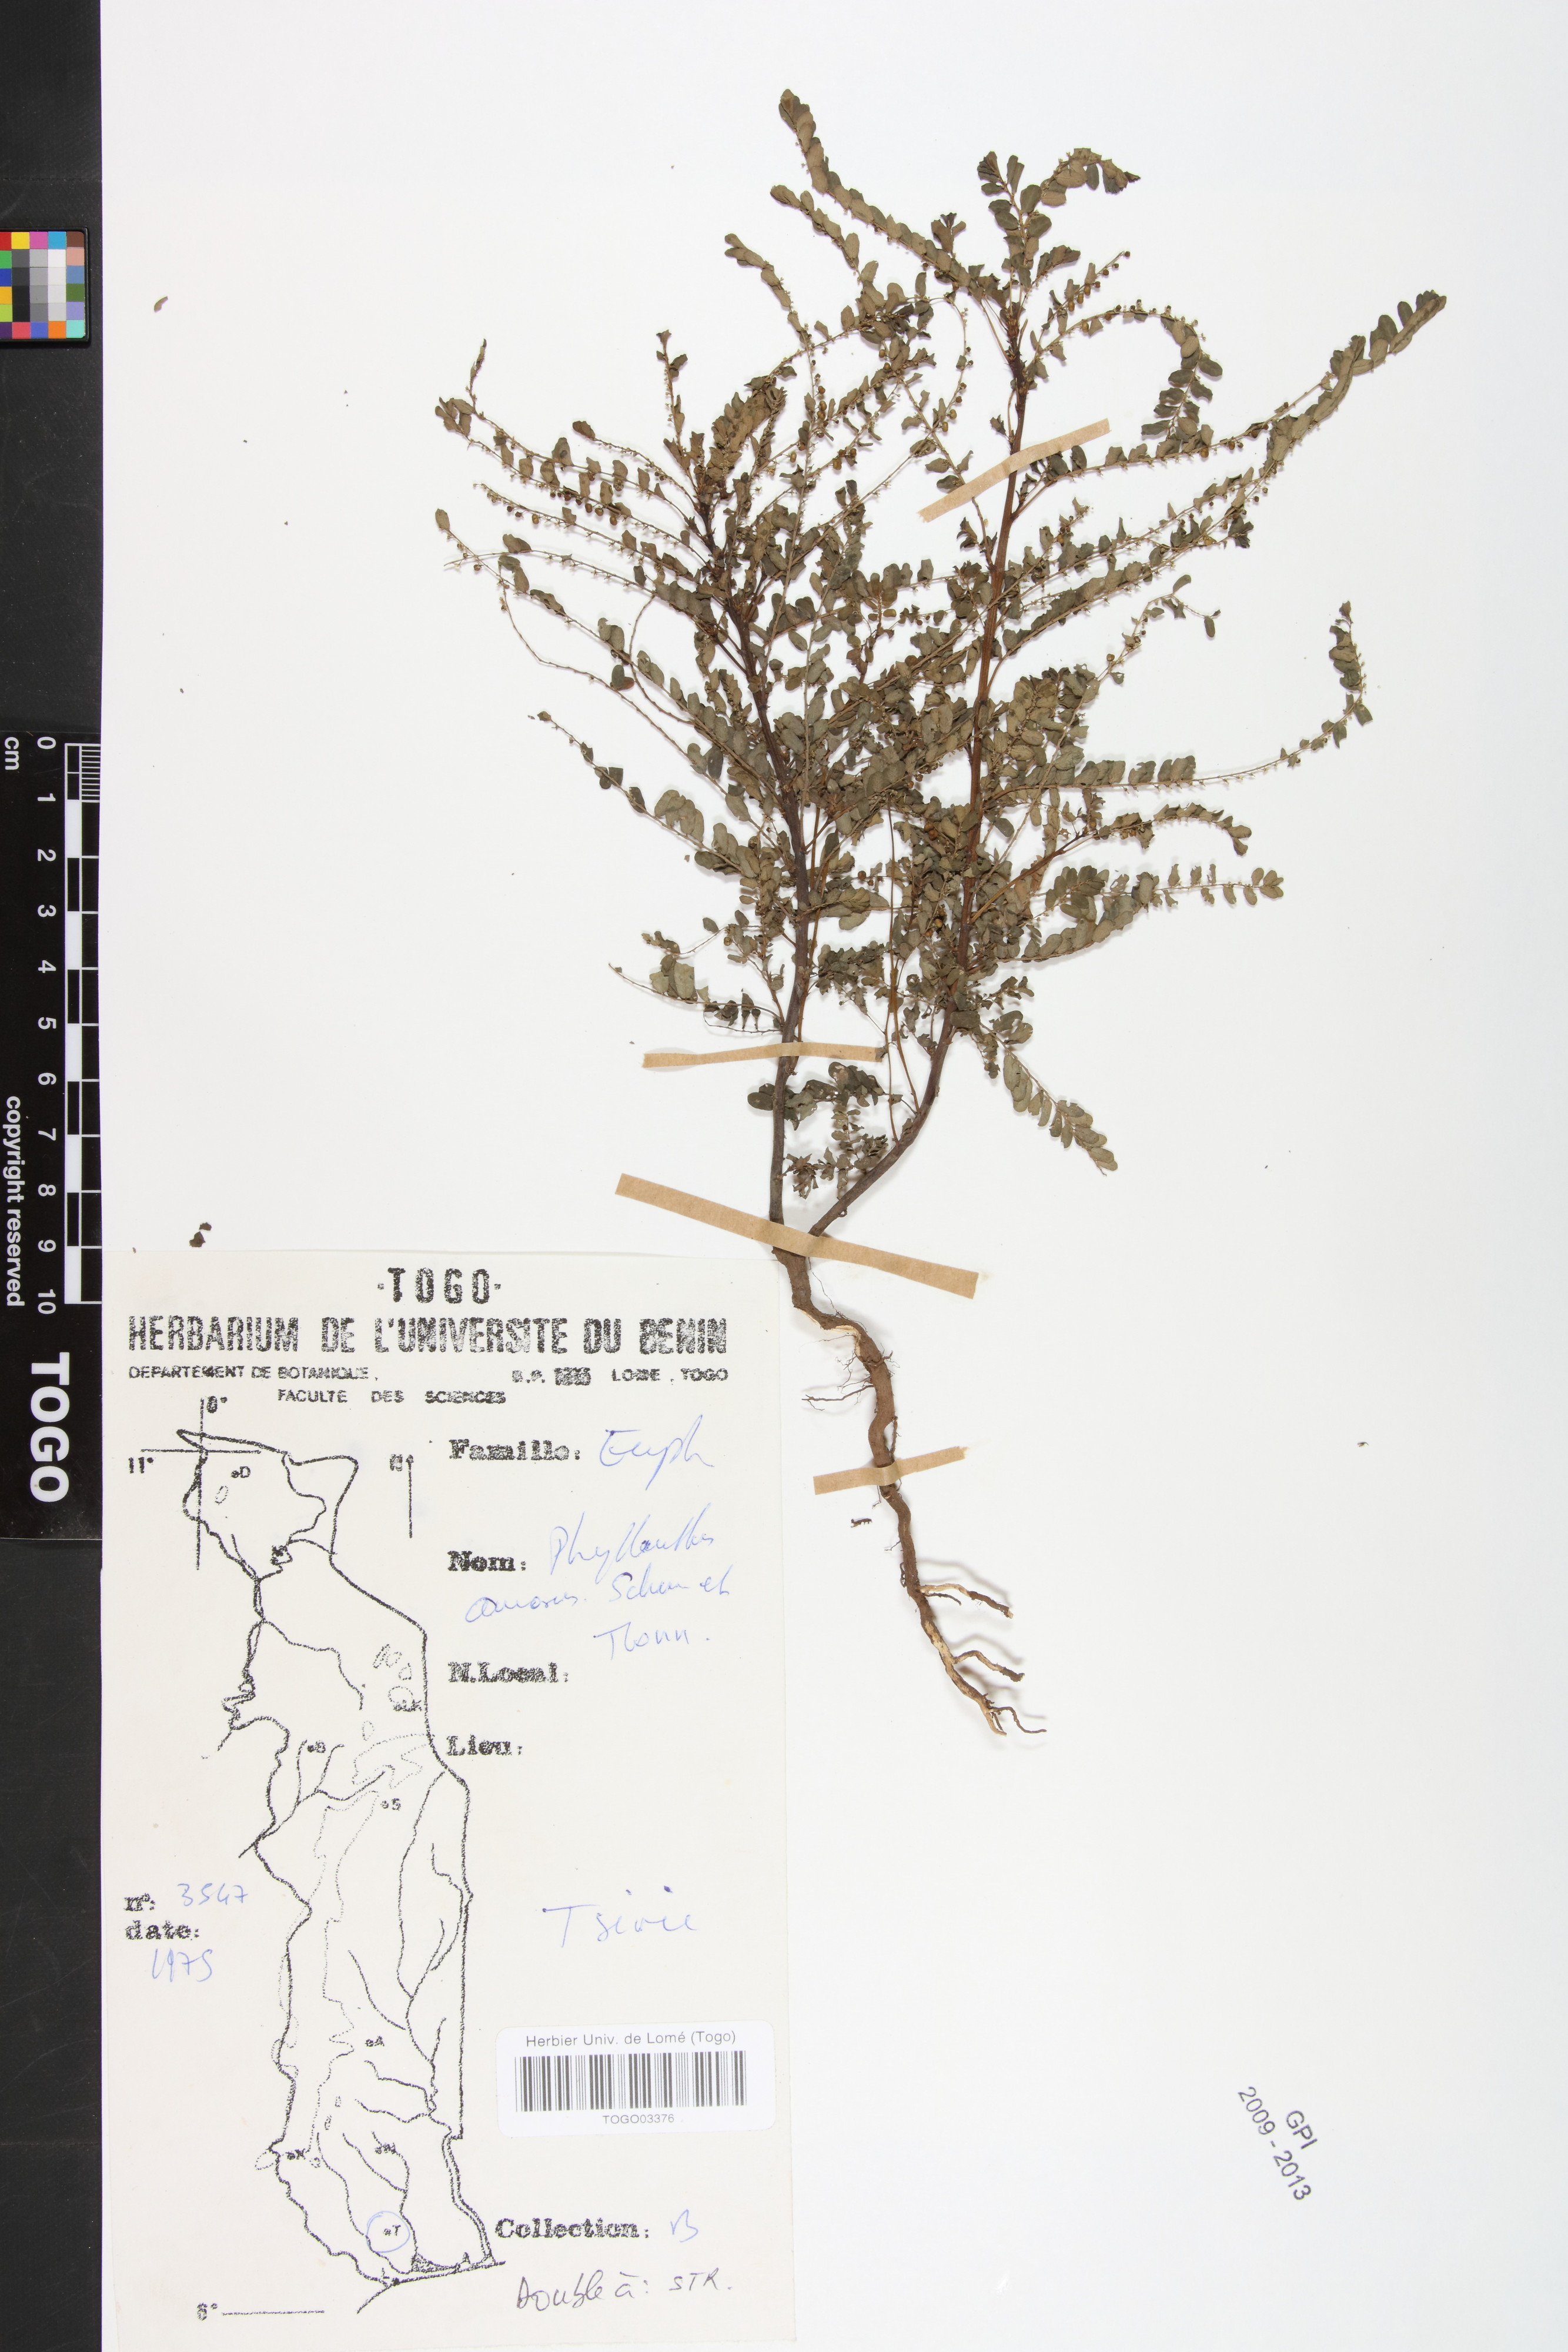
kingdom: Plantae
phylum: Tracheophyta
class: Magnoliopsida
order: Malpighiales
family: Phyllanthaceae
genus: Phyllanthus
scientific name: Phyllanthus amarus
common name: Carry me seed
